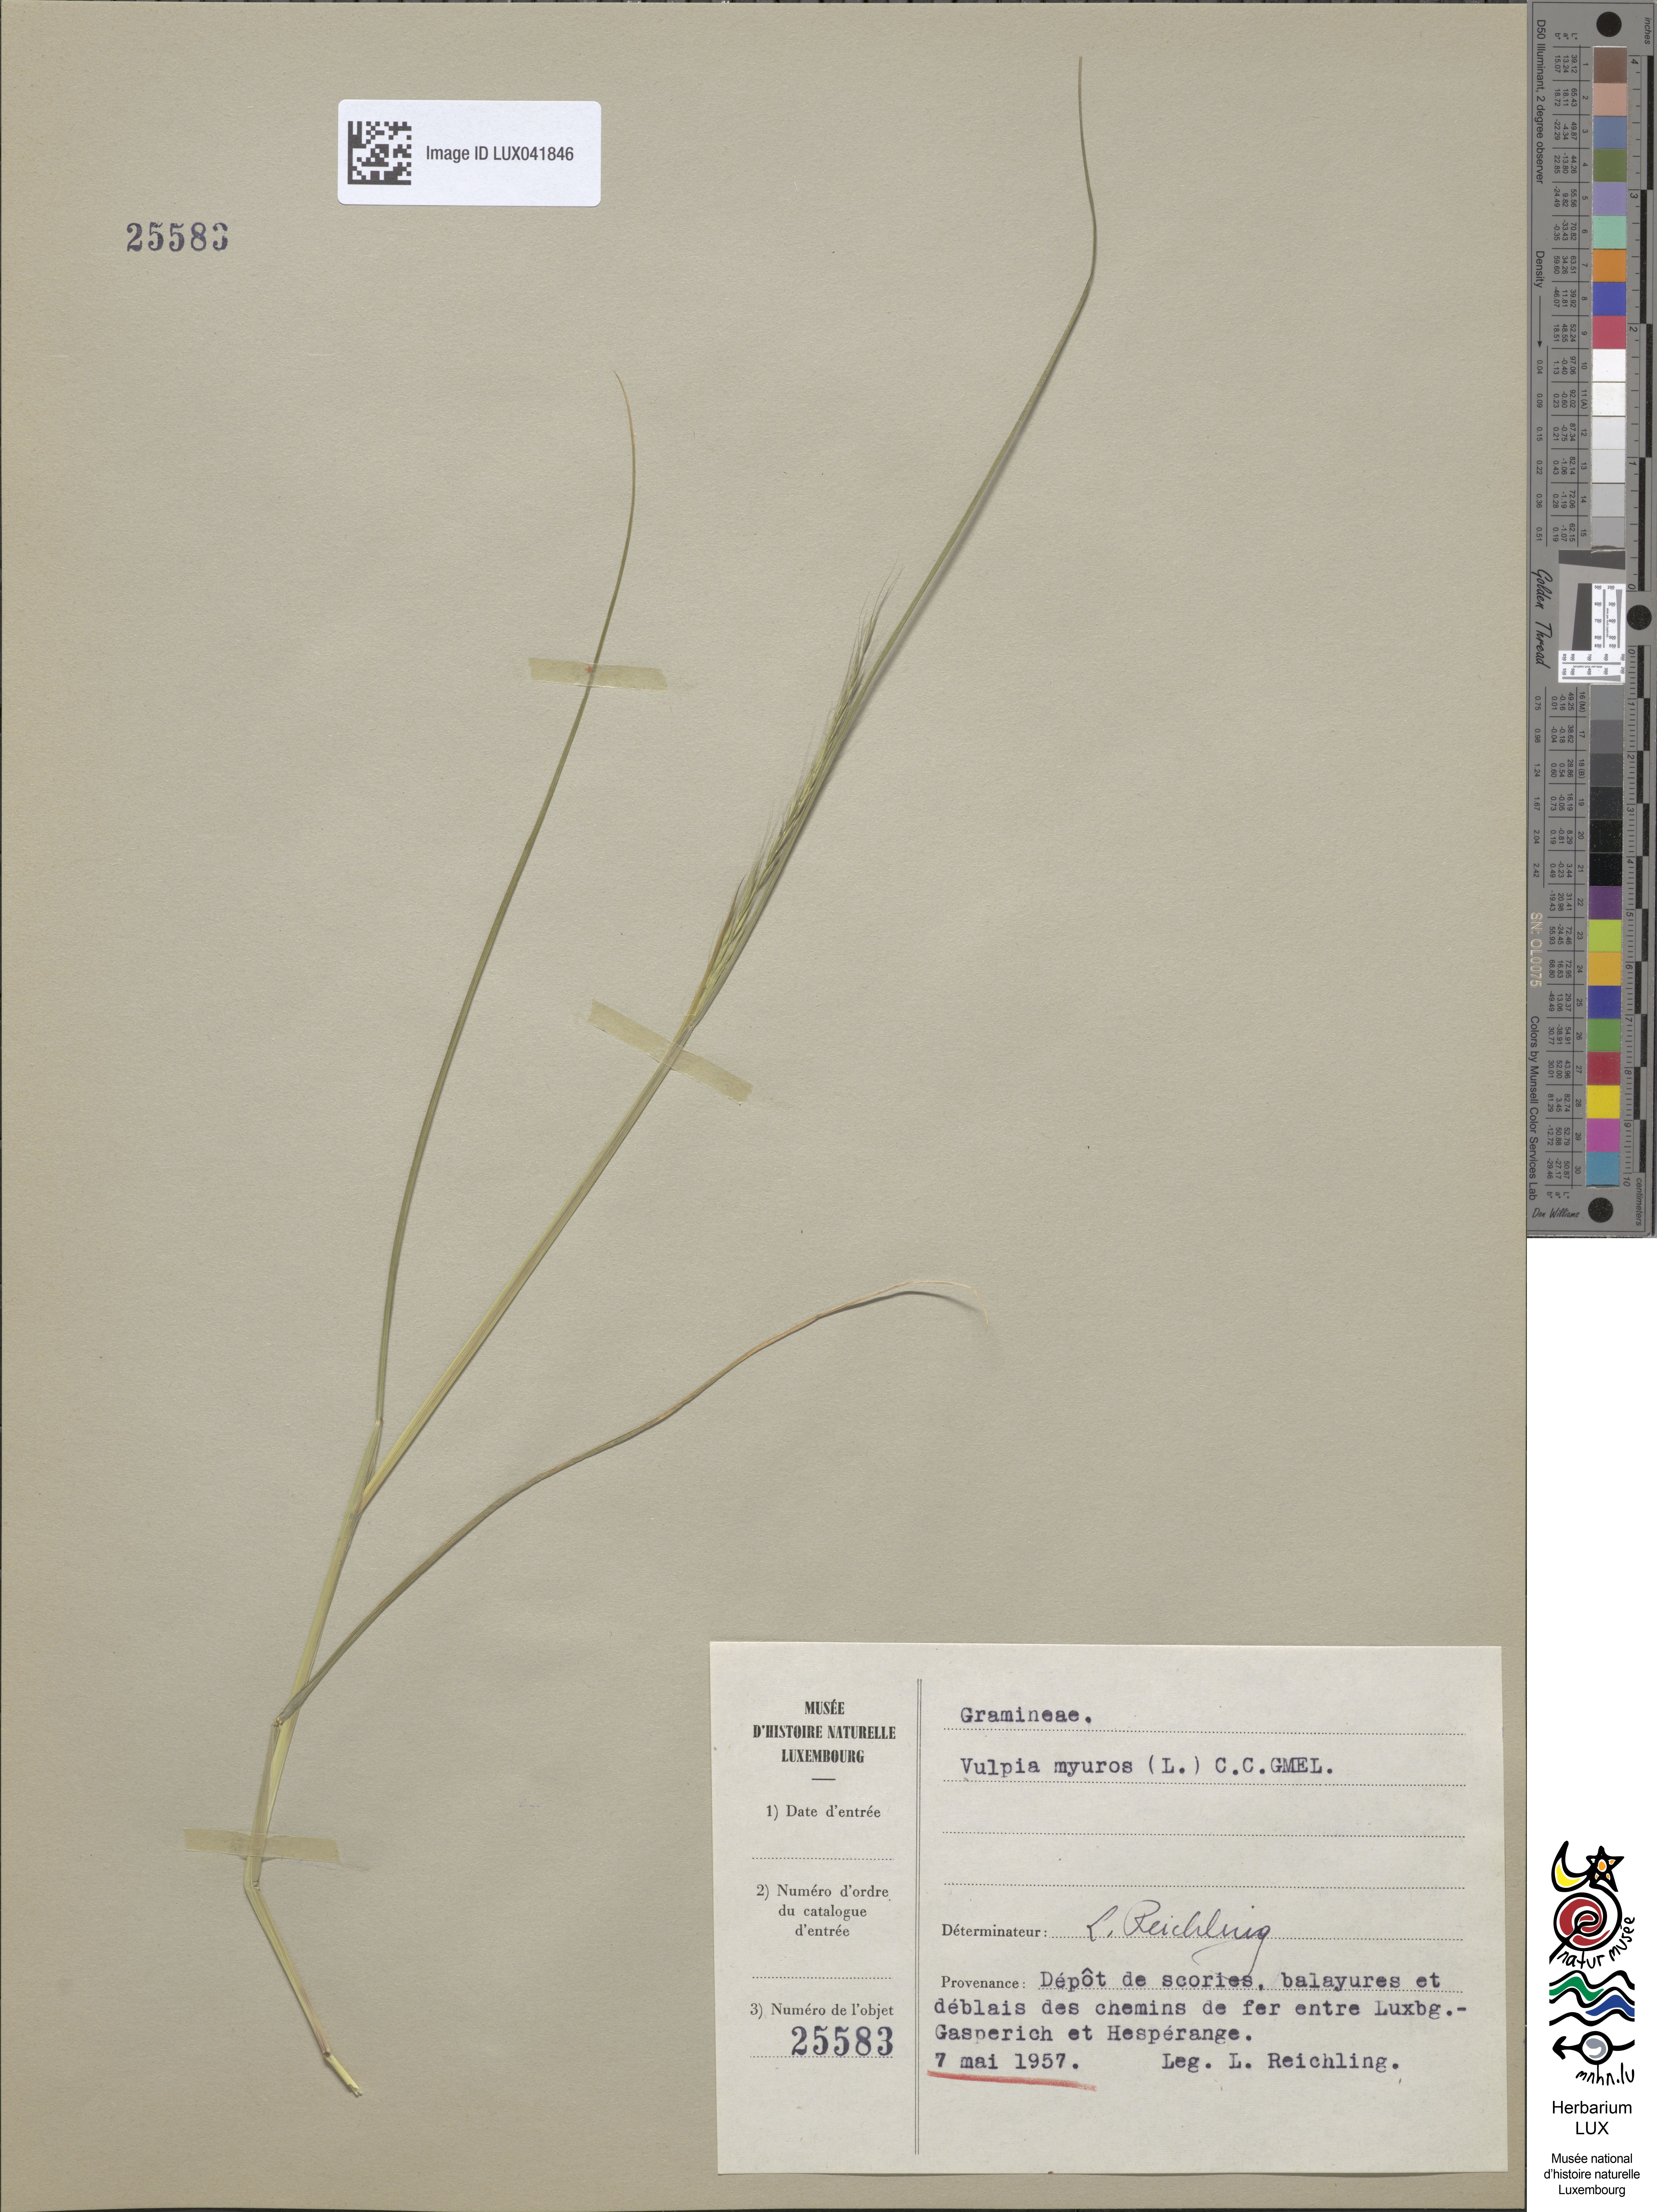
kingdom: Plantae
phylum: Tracheophyta
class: Liliopsida
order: Poales
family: Poaceae
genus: Festuca
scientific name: Festuca myuros
